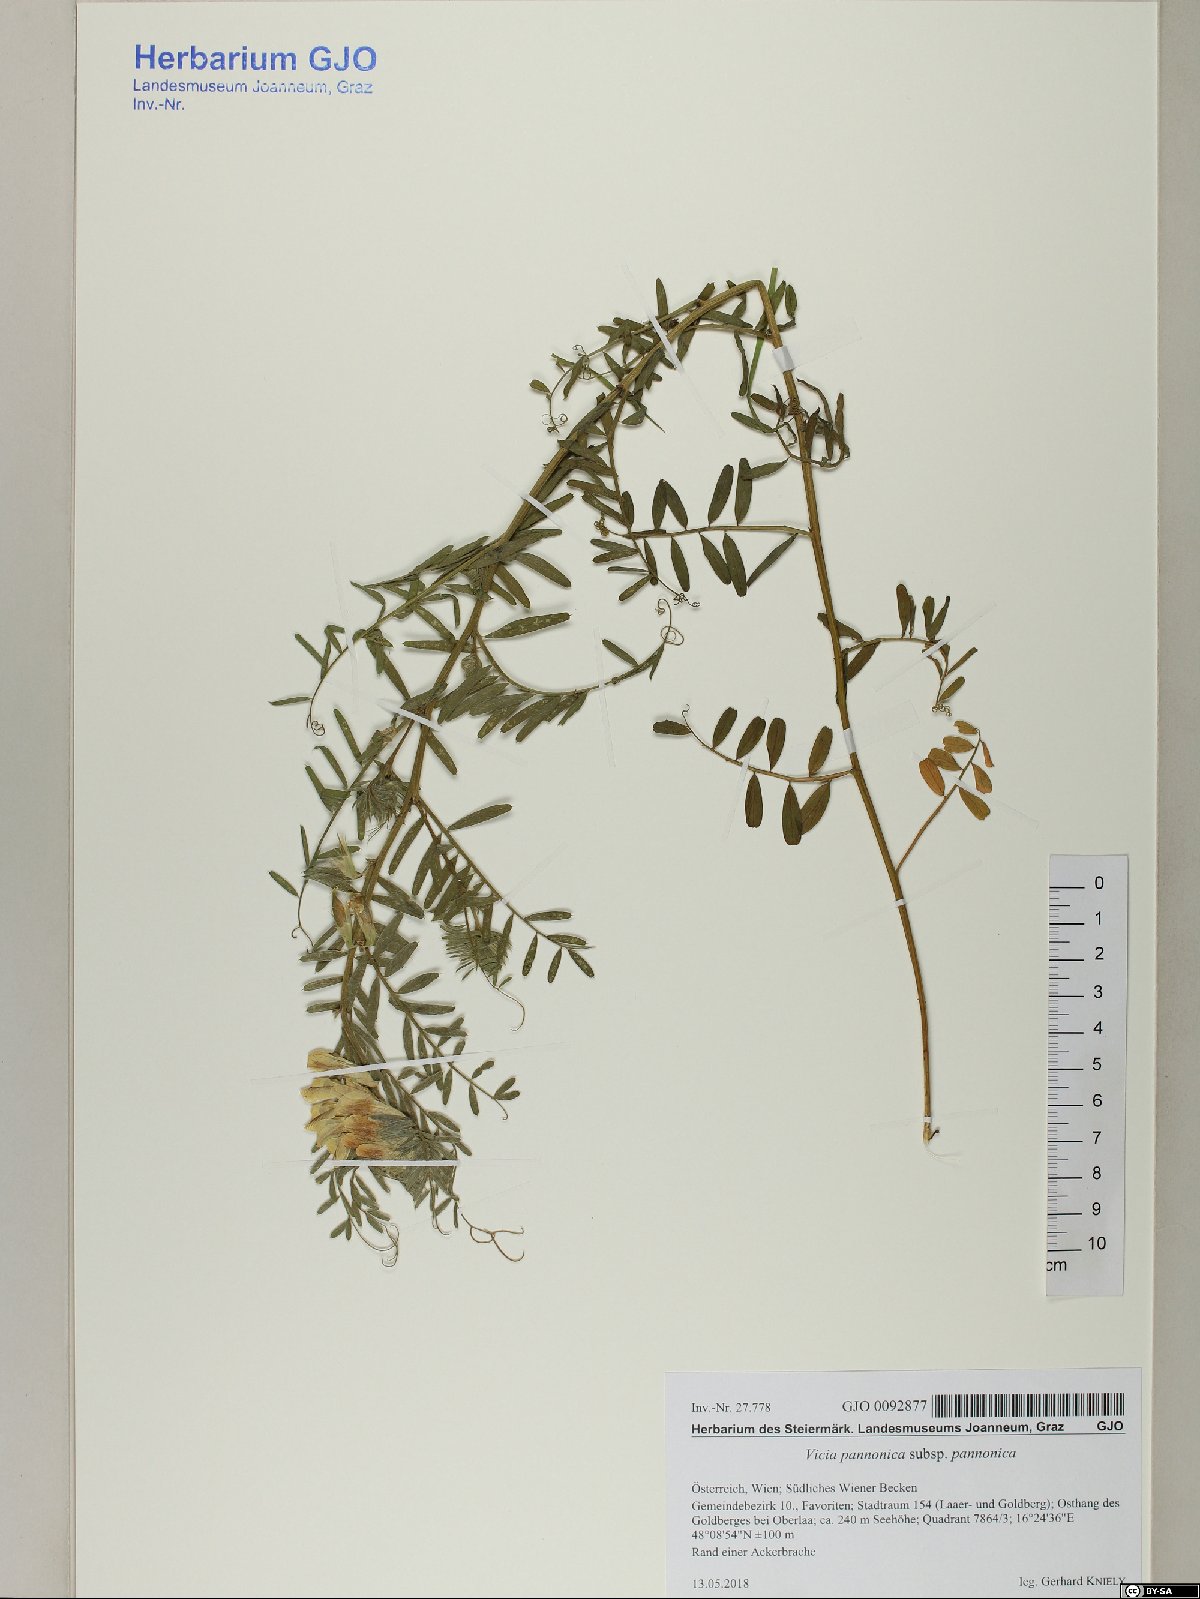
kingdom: Plantae
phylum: Tracheophyta
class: Magnoliopsida
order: Fabales
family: Fabaceae
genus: Vicia
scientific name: Vicia pannonica
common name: Hungarian vetch
